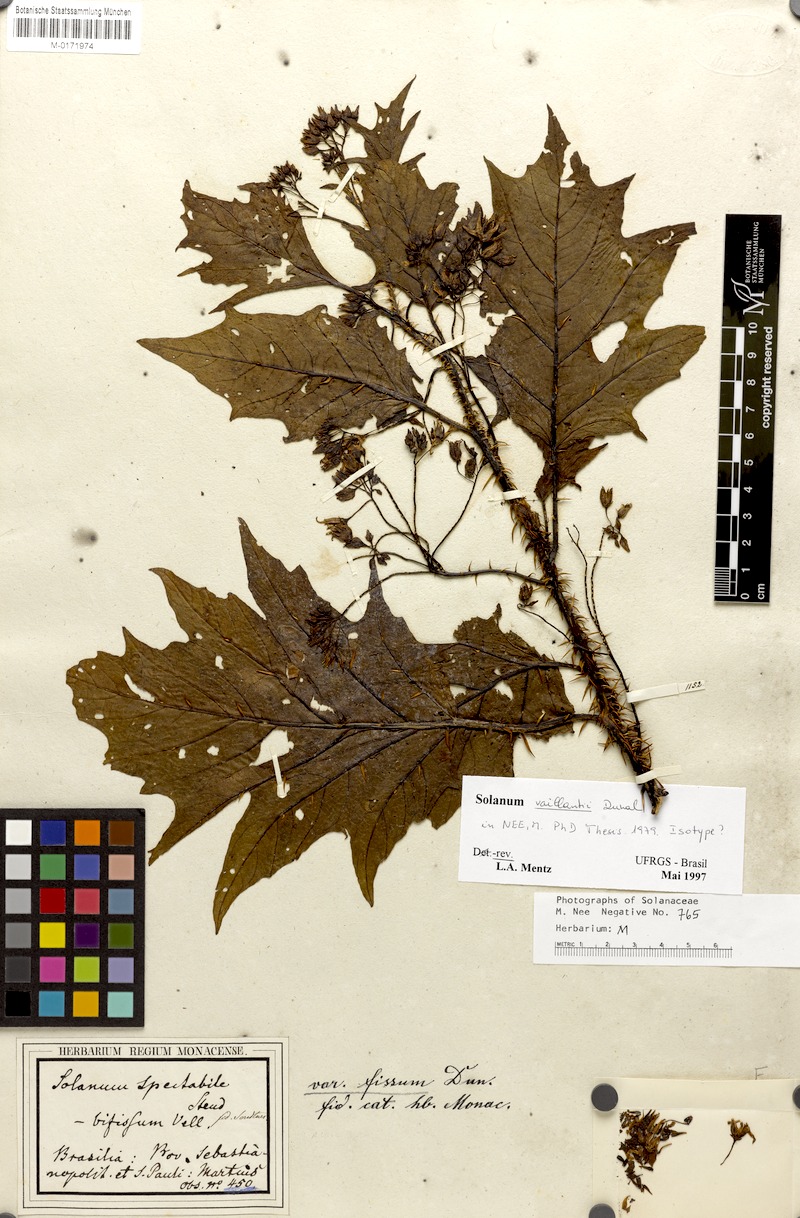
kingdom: Plantae
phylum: Tracheophyta
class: Magnoliopsida
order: Solanales
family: Solanaceae
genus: Solanum
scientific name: Solanum vaillantii
